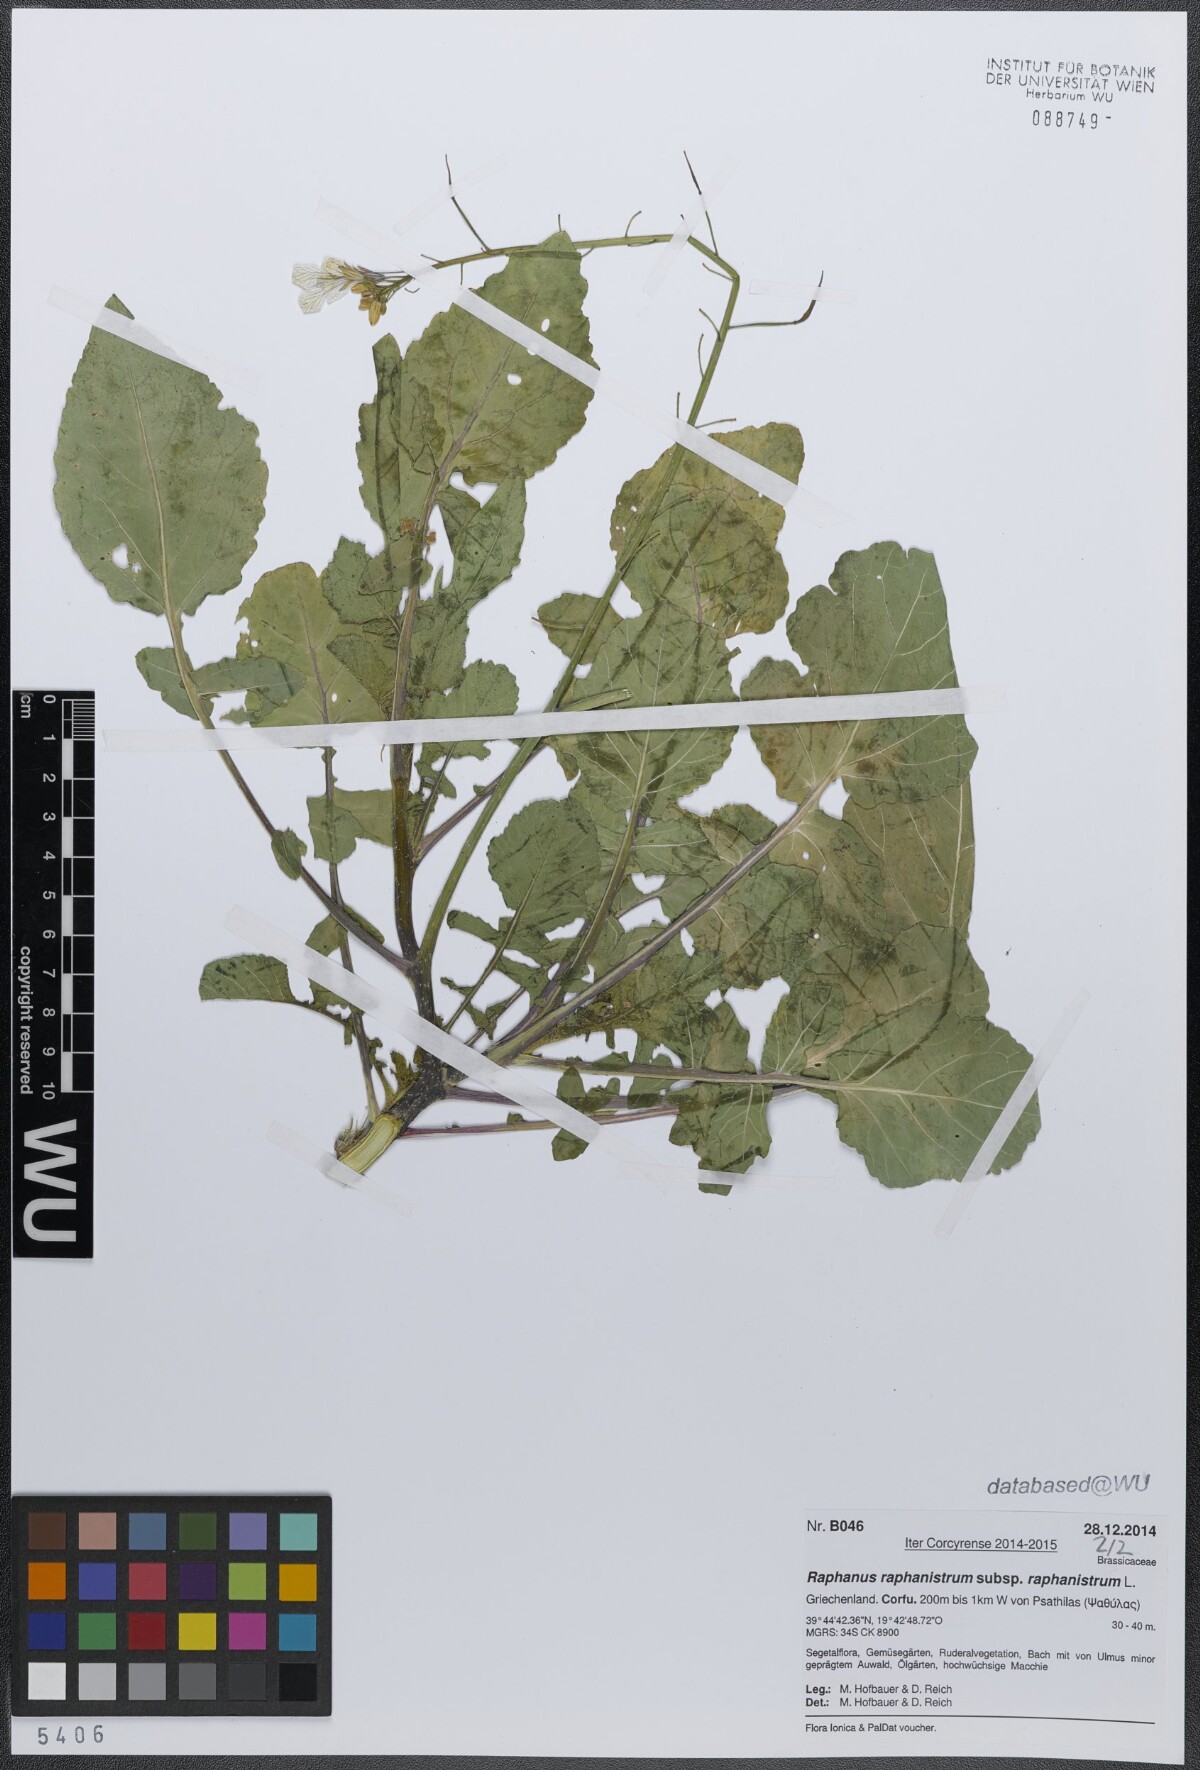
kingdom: Plantae
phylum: Tracheophyta
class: Magnoliopsida
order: Brassicales
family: Brassicaceae
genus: Raphanus
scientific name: Raphanus raphanistrum
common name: Wild radish
